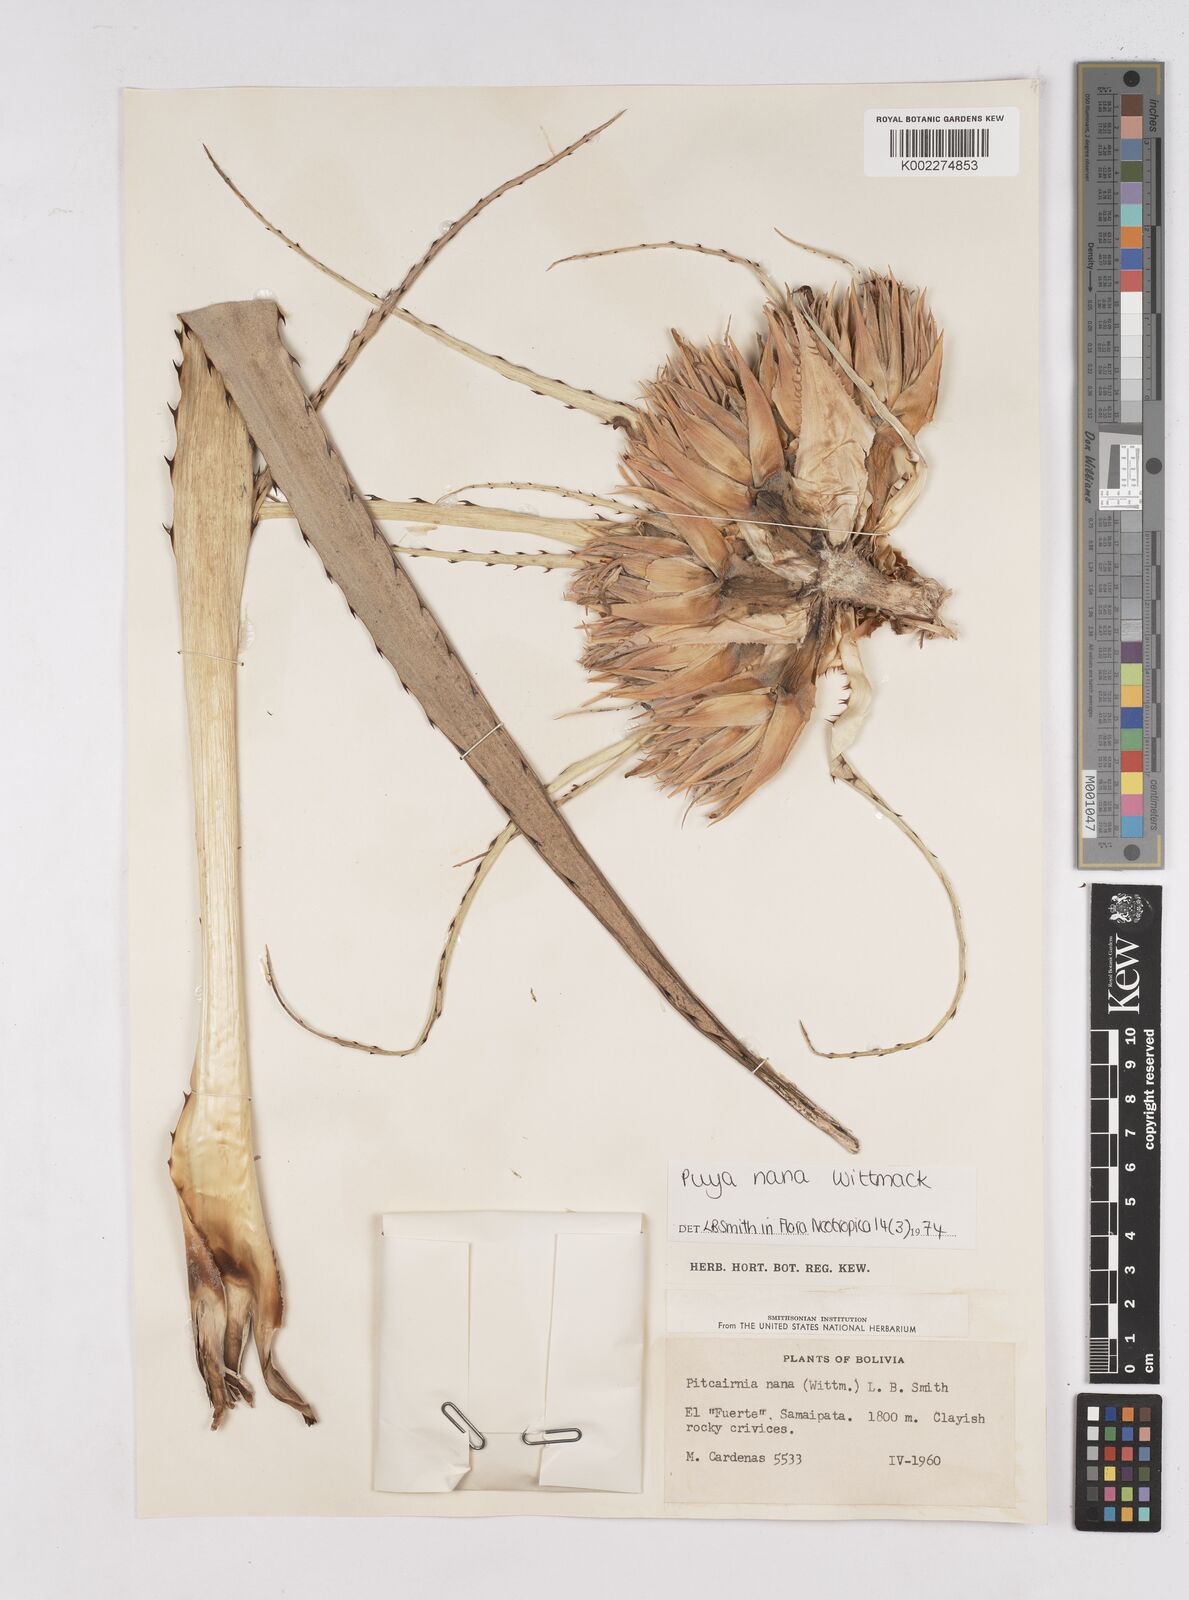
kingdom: Plantae
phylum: Tracheophyta
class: Liliopsida
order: Poales
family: Bromeliaceae
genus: Puya
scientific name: Puya nana
